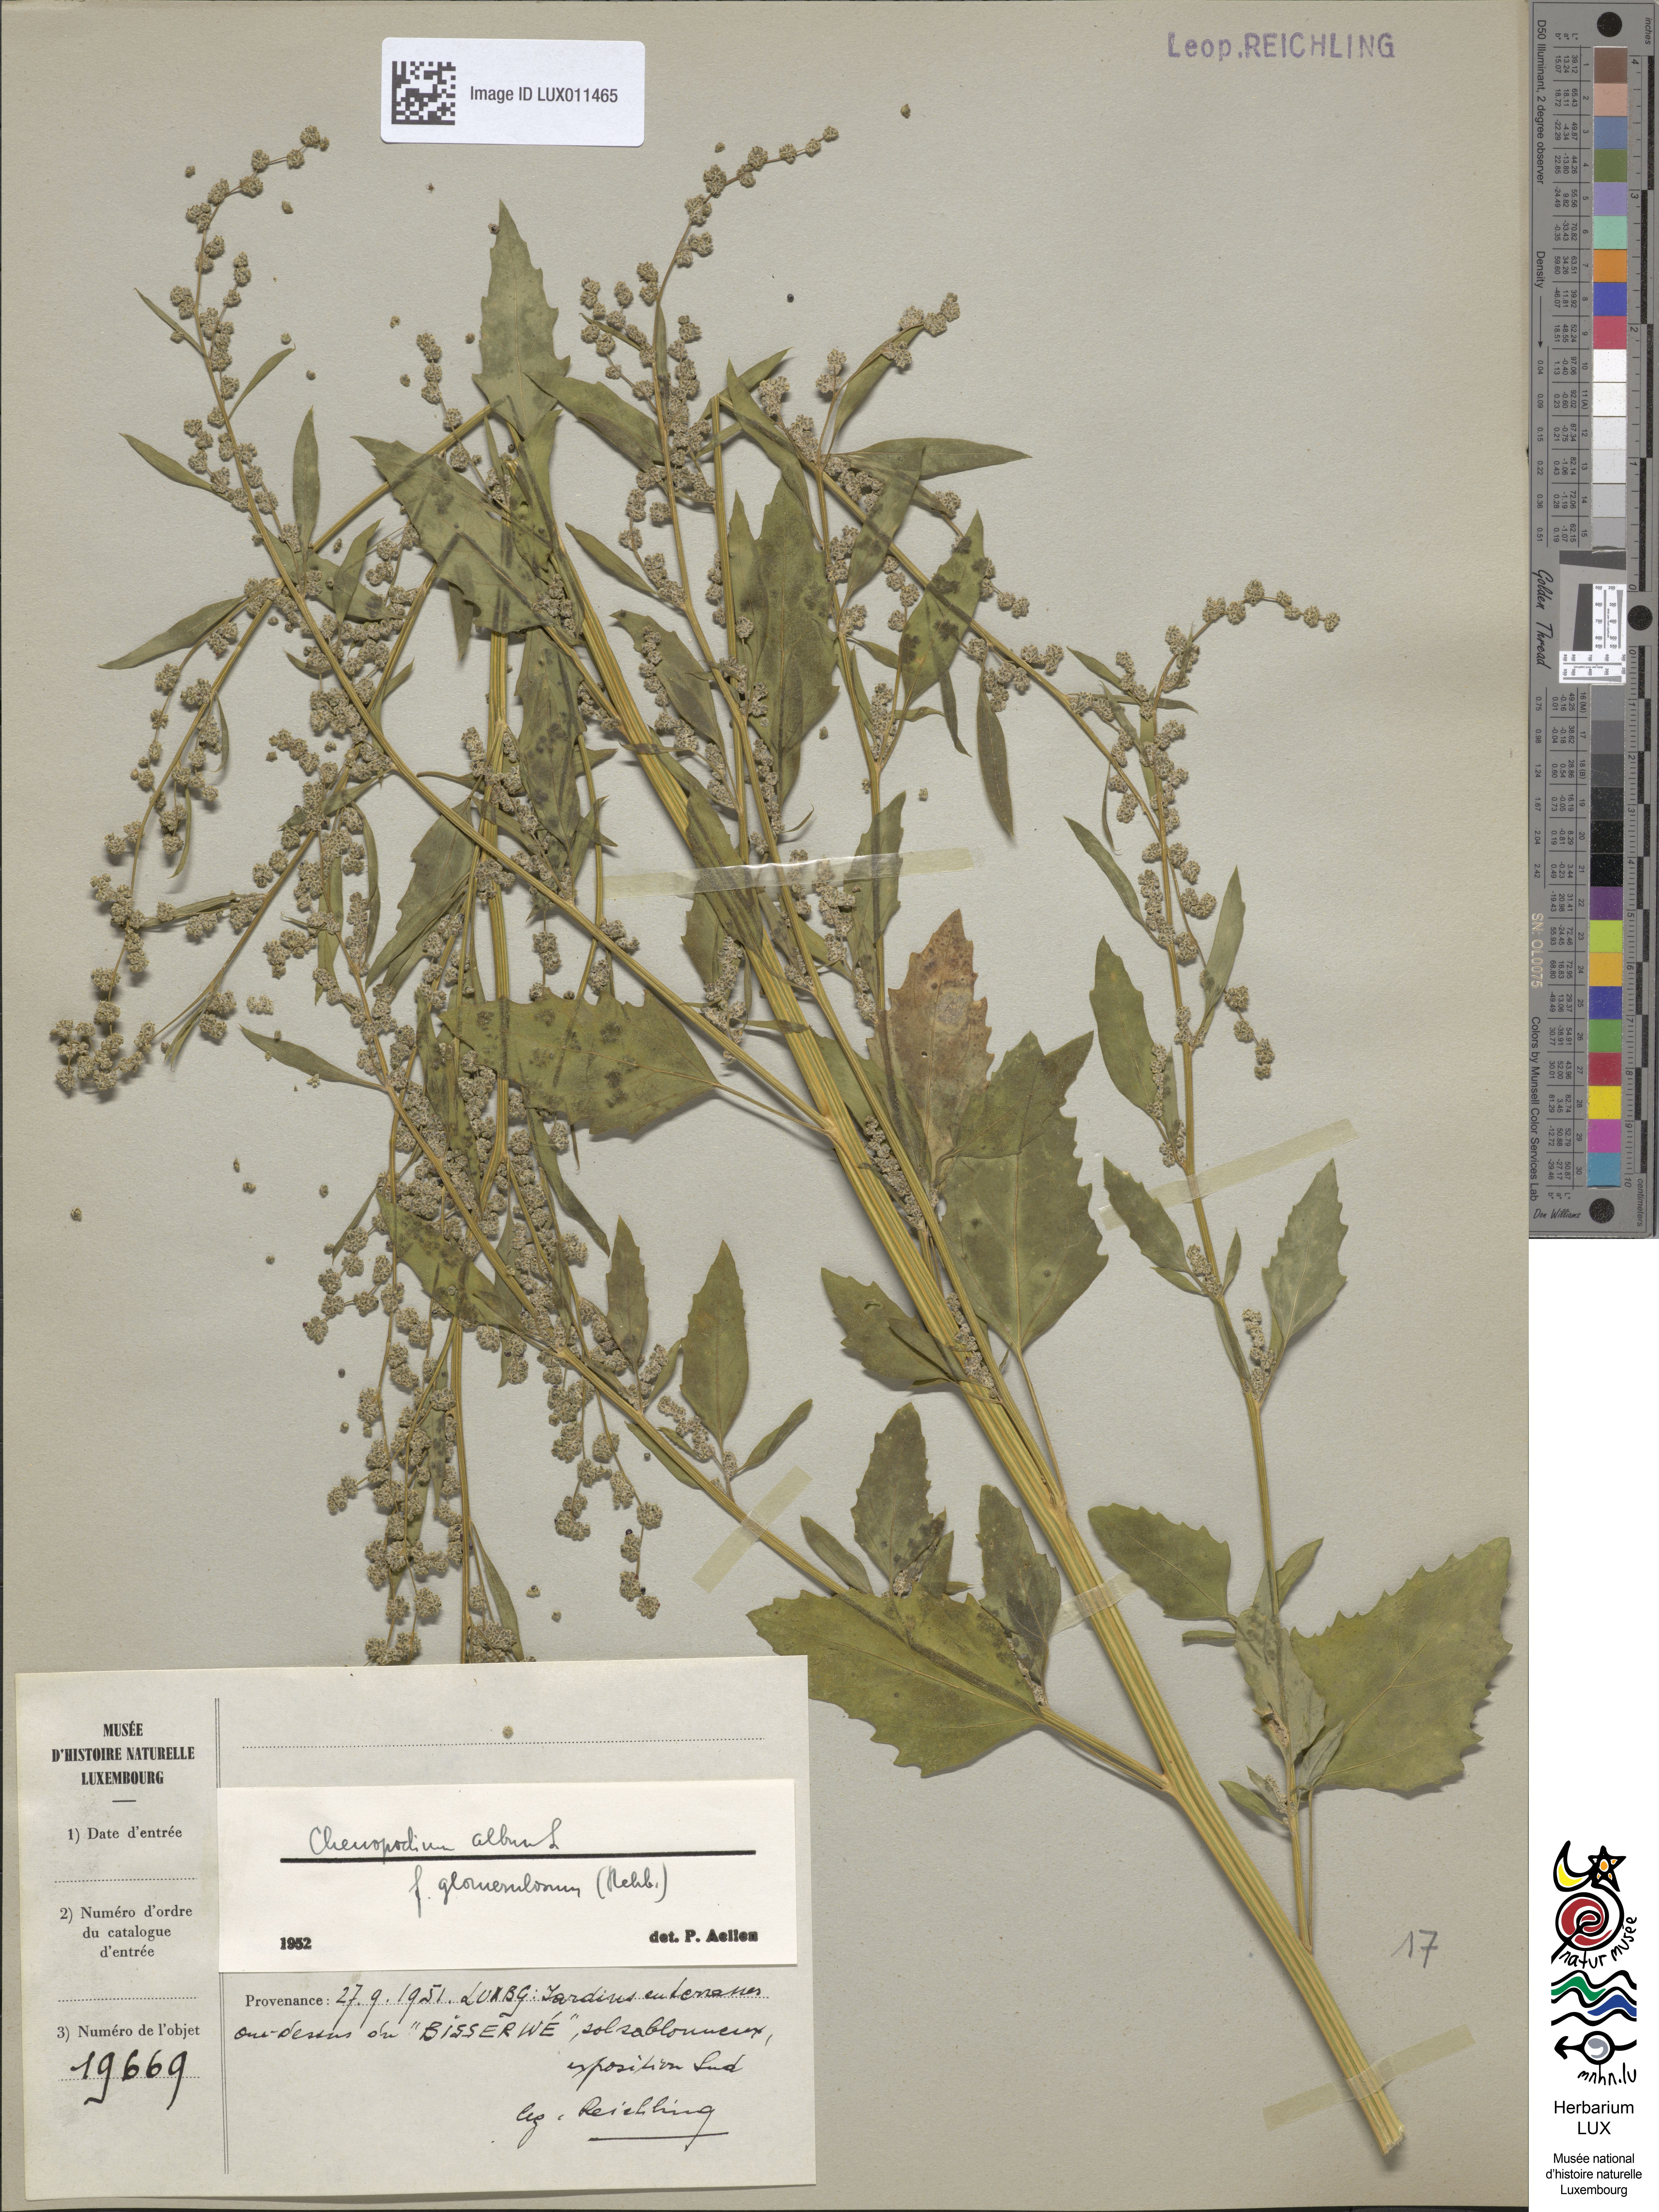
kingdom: Plantae
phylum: Tracheophyta
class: Magnoliopsida
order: Caryophyllales
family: Amaranthaceae
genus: Chenopodium
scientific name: Chenopodium album
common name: Fat-hen
